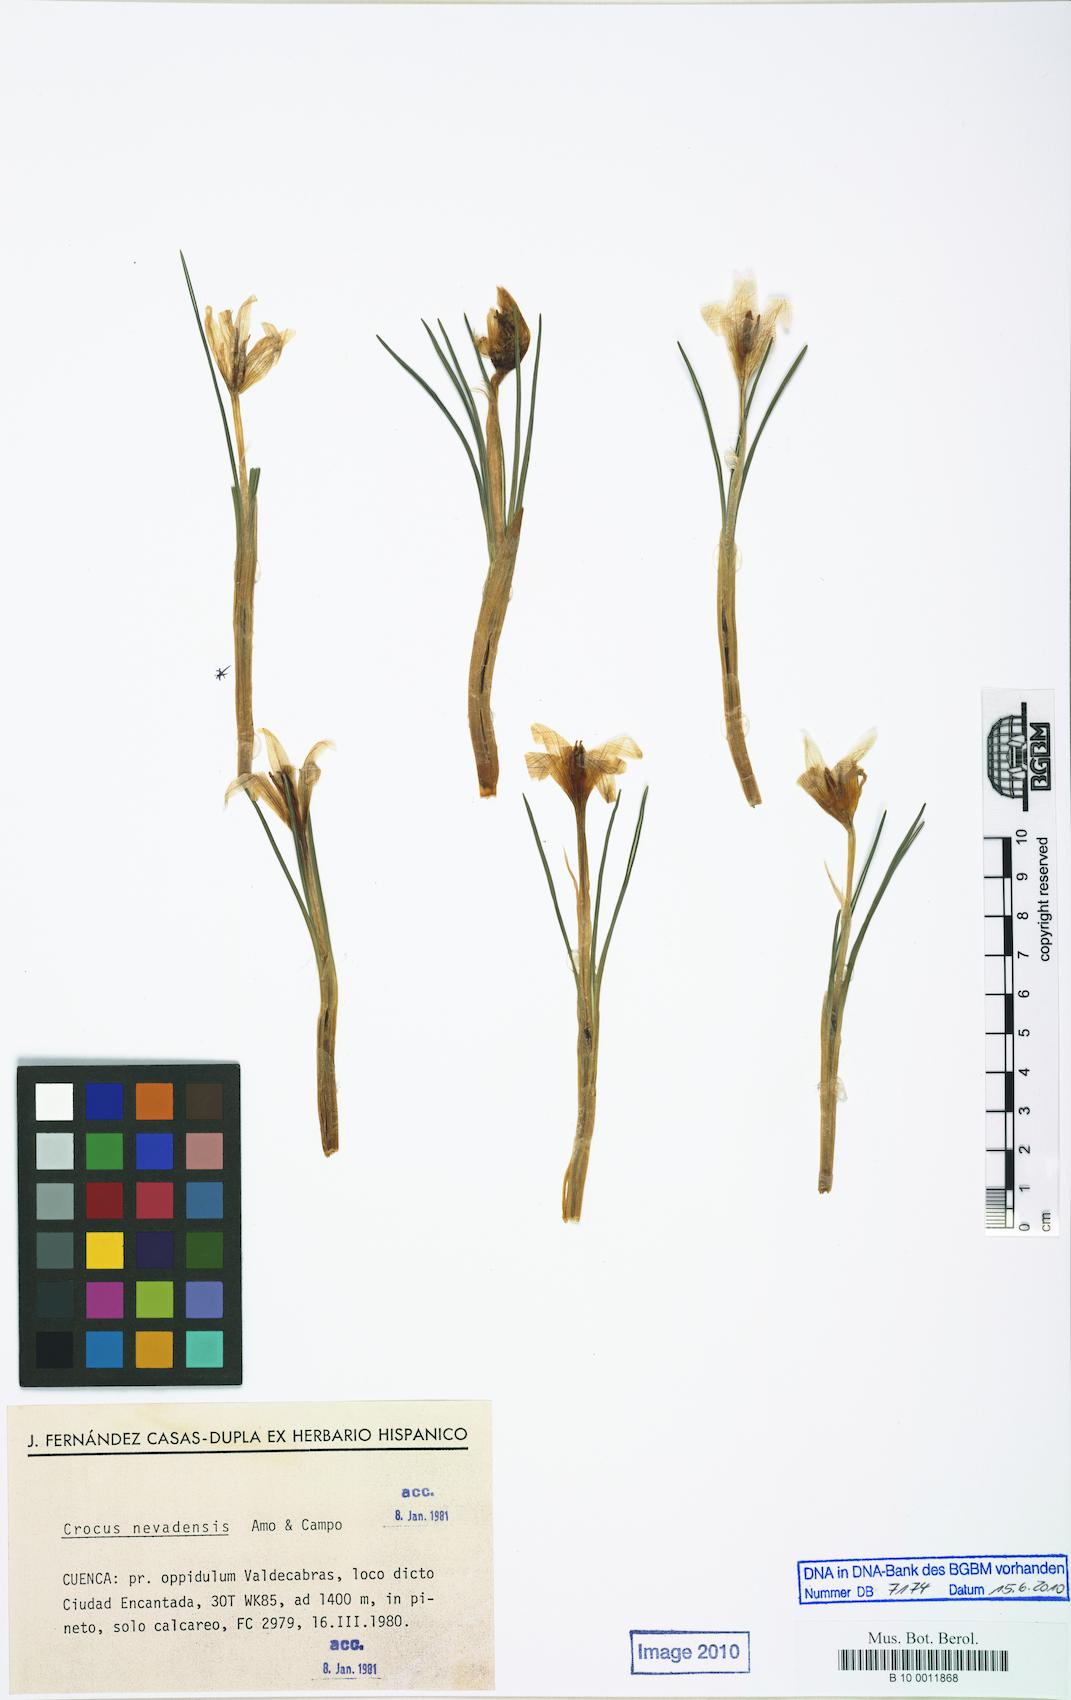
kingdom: Plantae
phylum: Tracheophyta
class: Liliopsida
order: Asparagales
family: Iridaceae
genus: Crocus
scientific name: Crocus nevadensis
